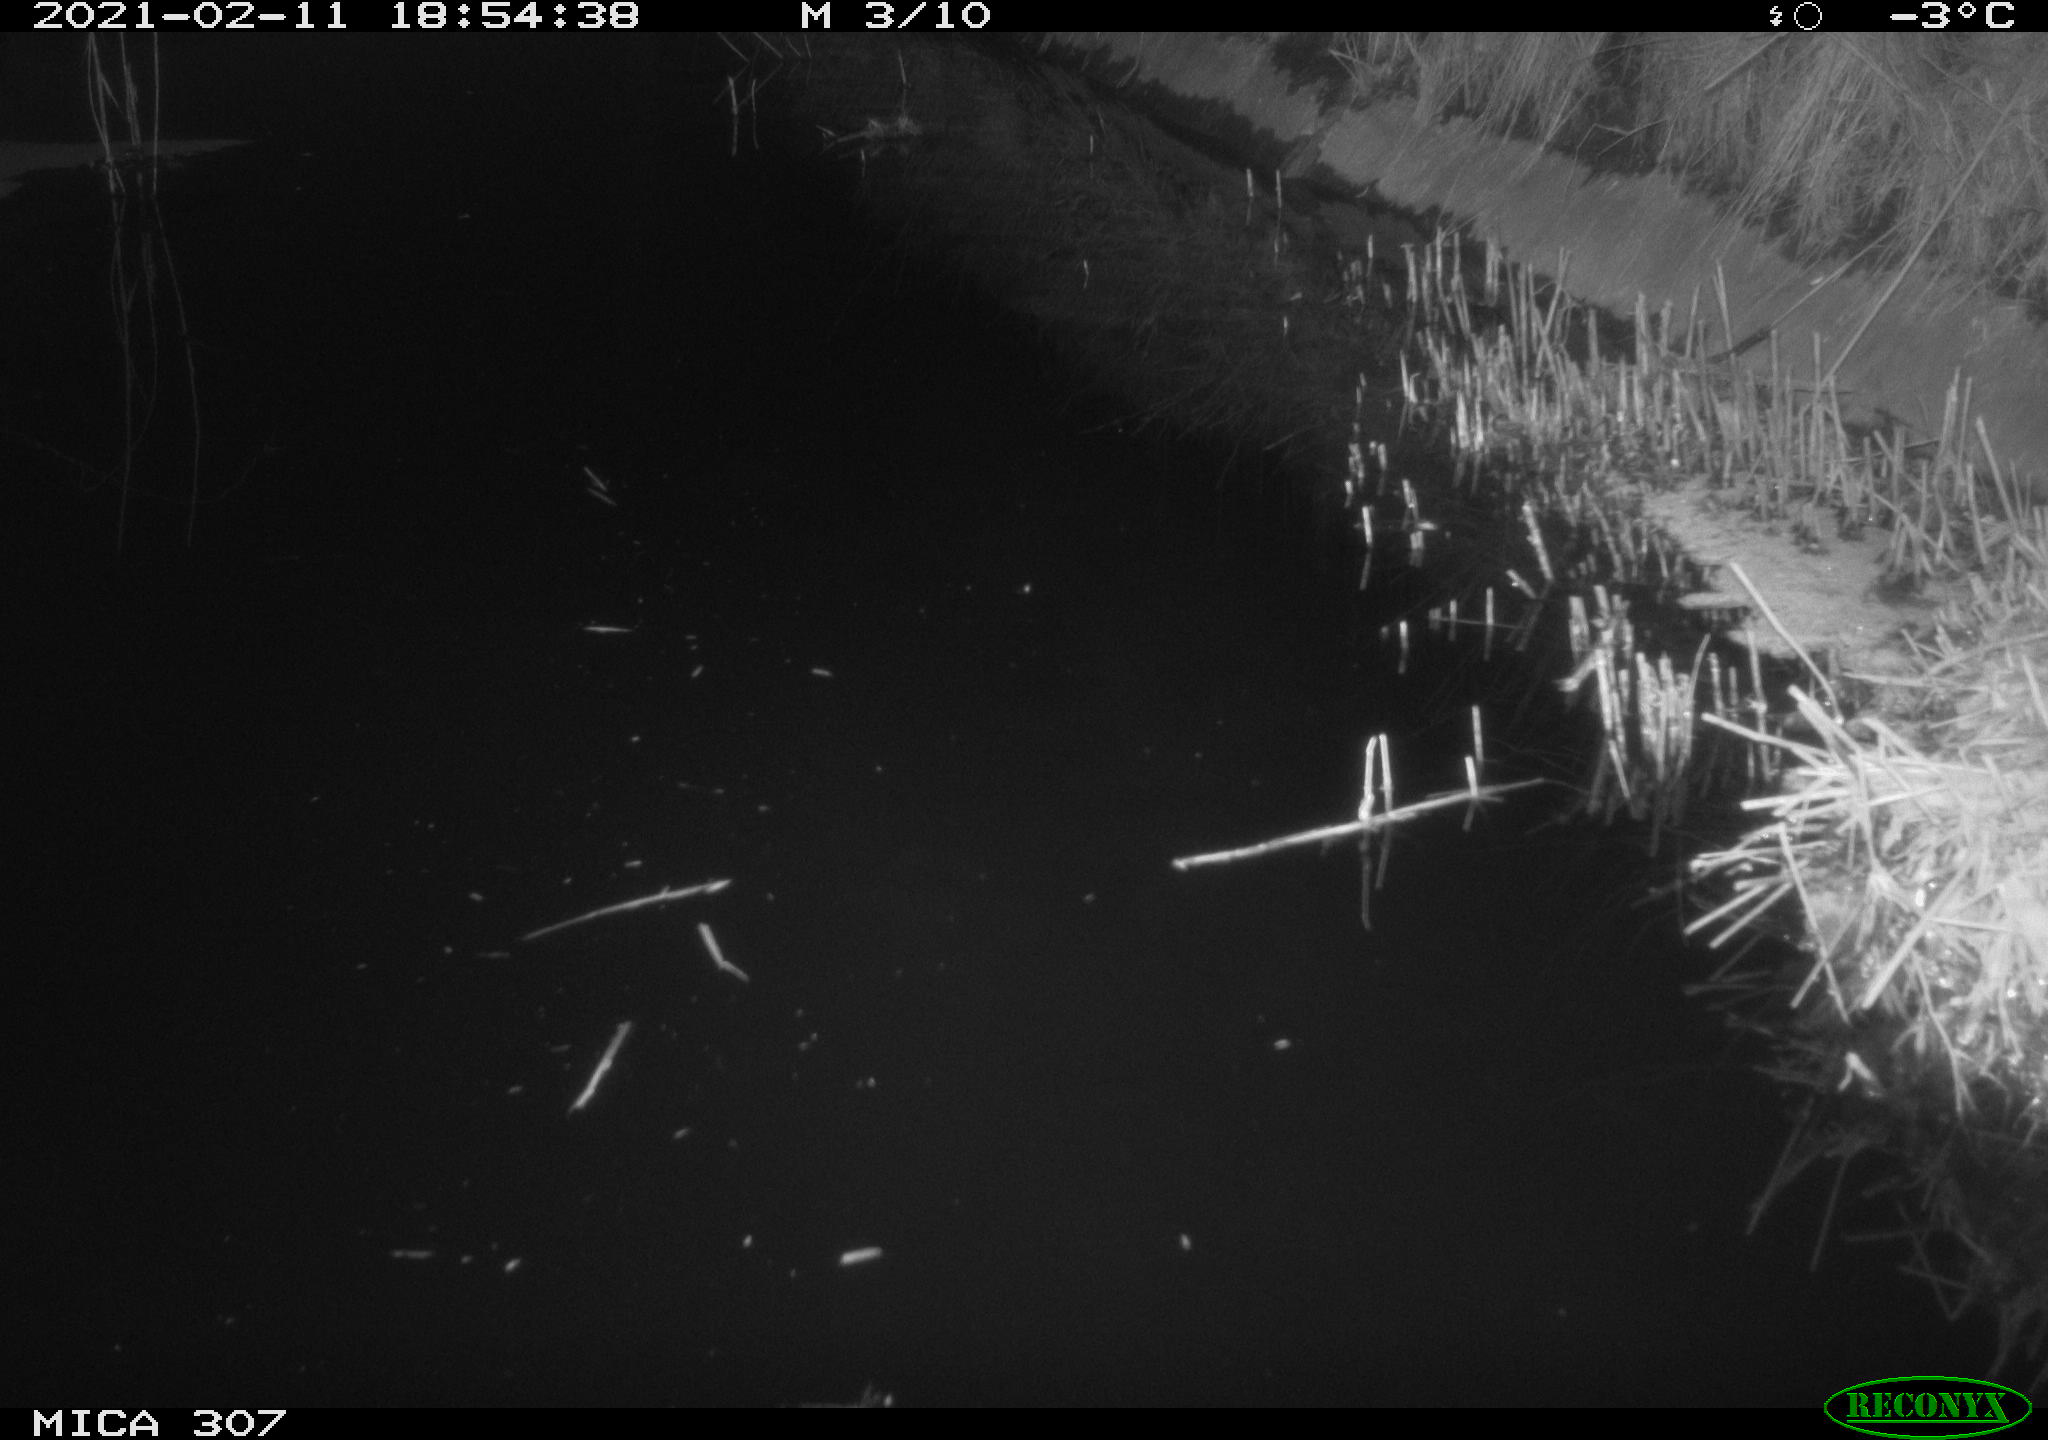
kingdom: Animalia
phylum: Chordata
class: Mammalia
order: Rodentia
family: Muridae
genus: Rattus
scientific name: Rattus norvegicus
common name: Brown rat
